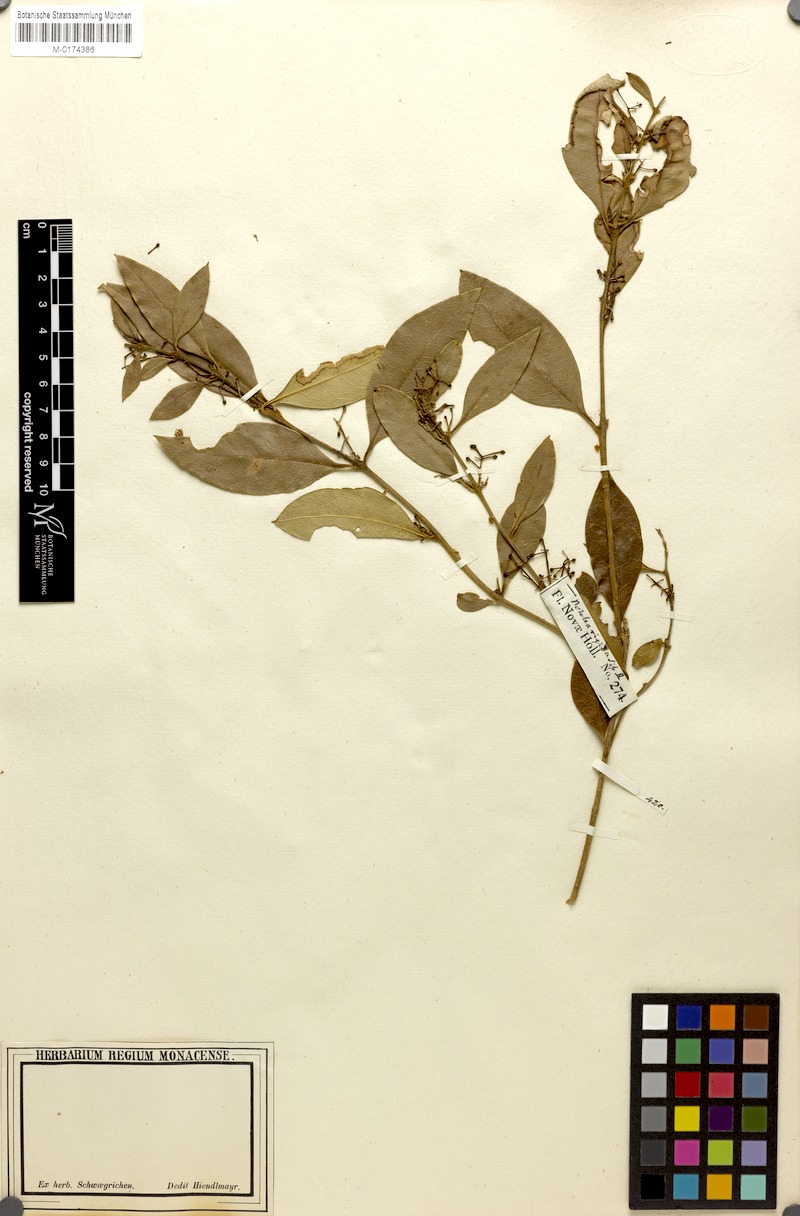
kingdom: Plantae
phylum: Tracheophyta
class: Magnoliopsida
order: Lamiales
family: Oleaceae
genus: Notelaea
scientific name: Notelaea longifolia
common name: Large mock olive
